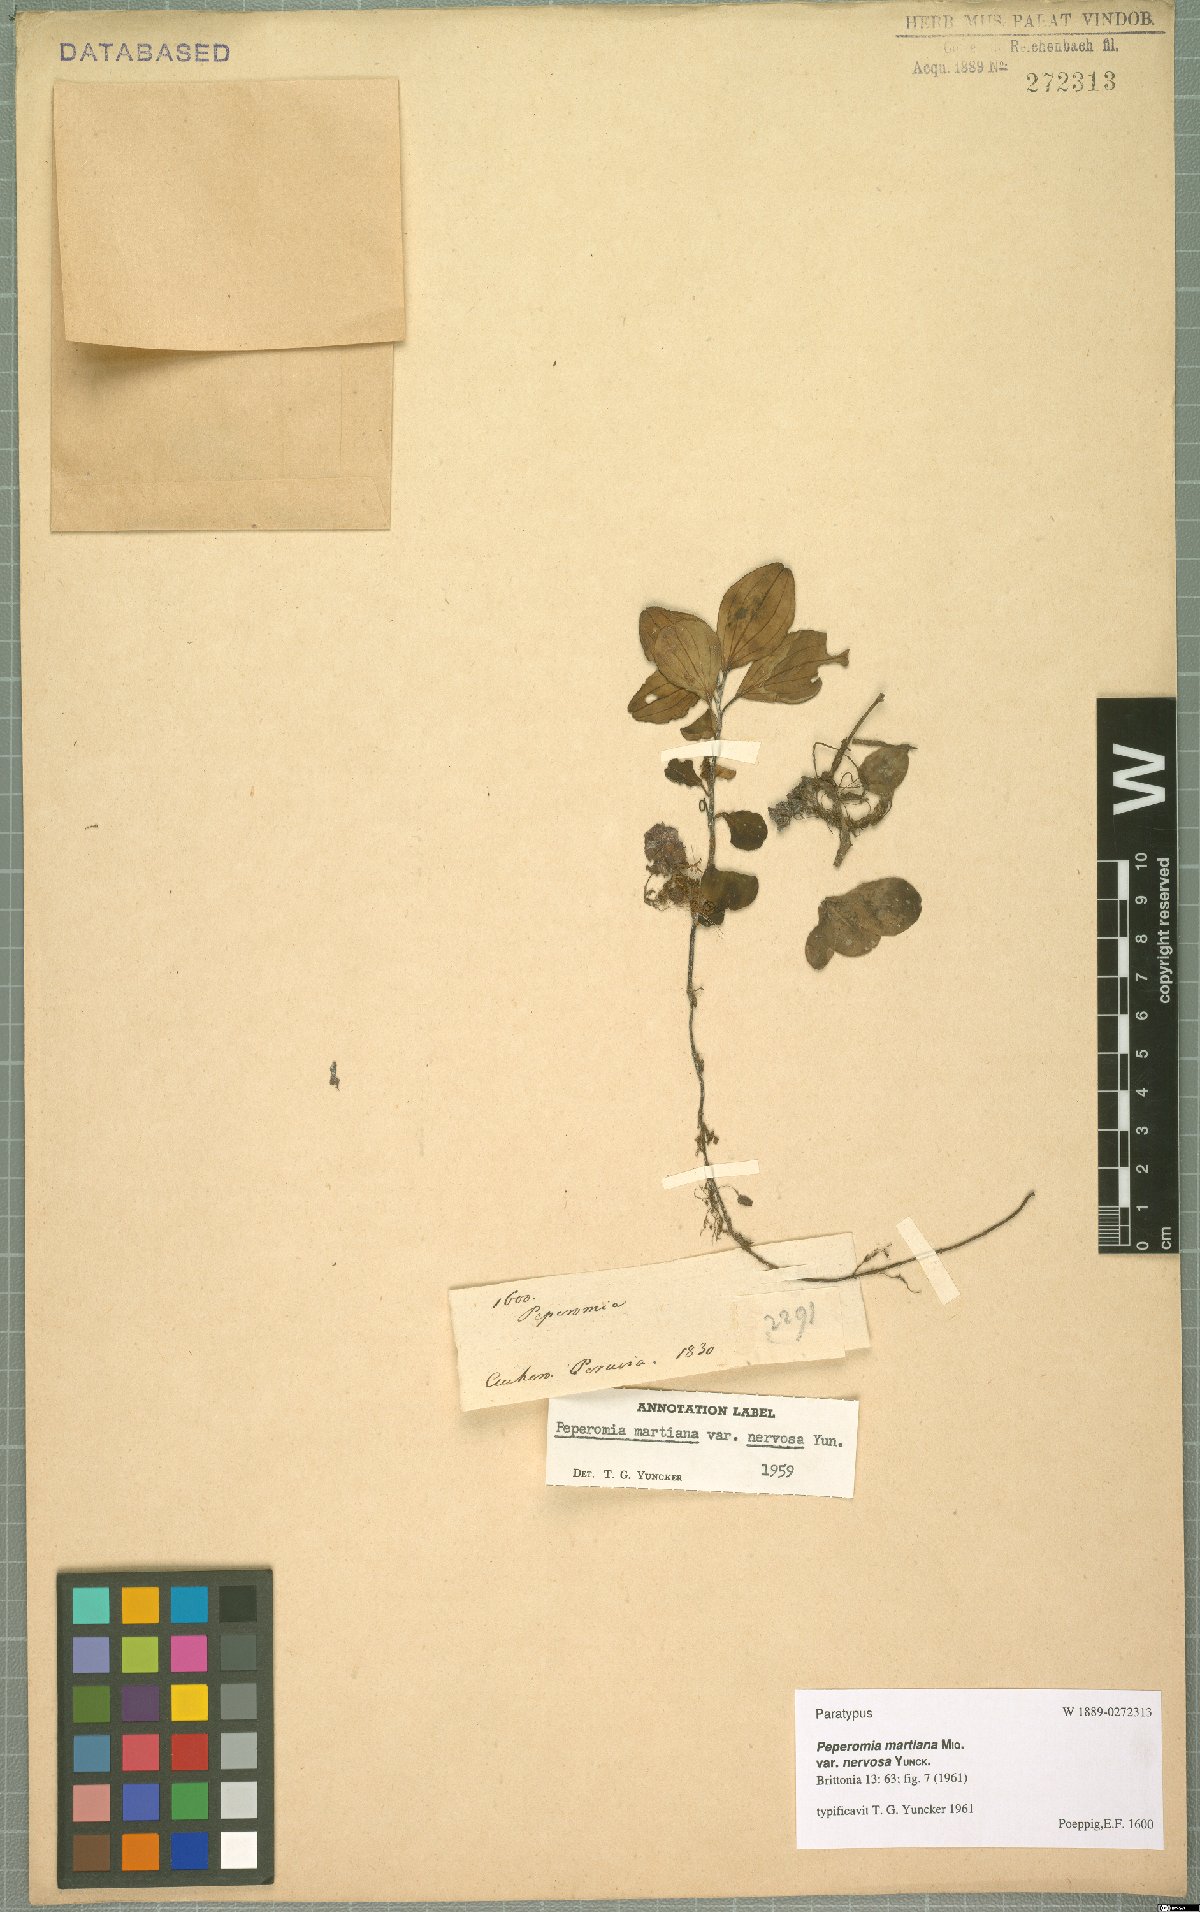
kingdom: Plantae
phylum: Tracheophyta
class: Magnoliopsida
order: Piperales
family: Piperaceae
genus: Peperomia
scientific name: Peperomia martiana
